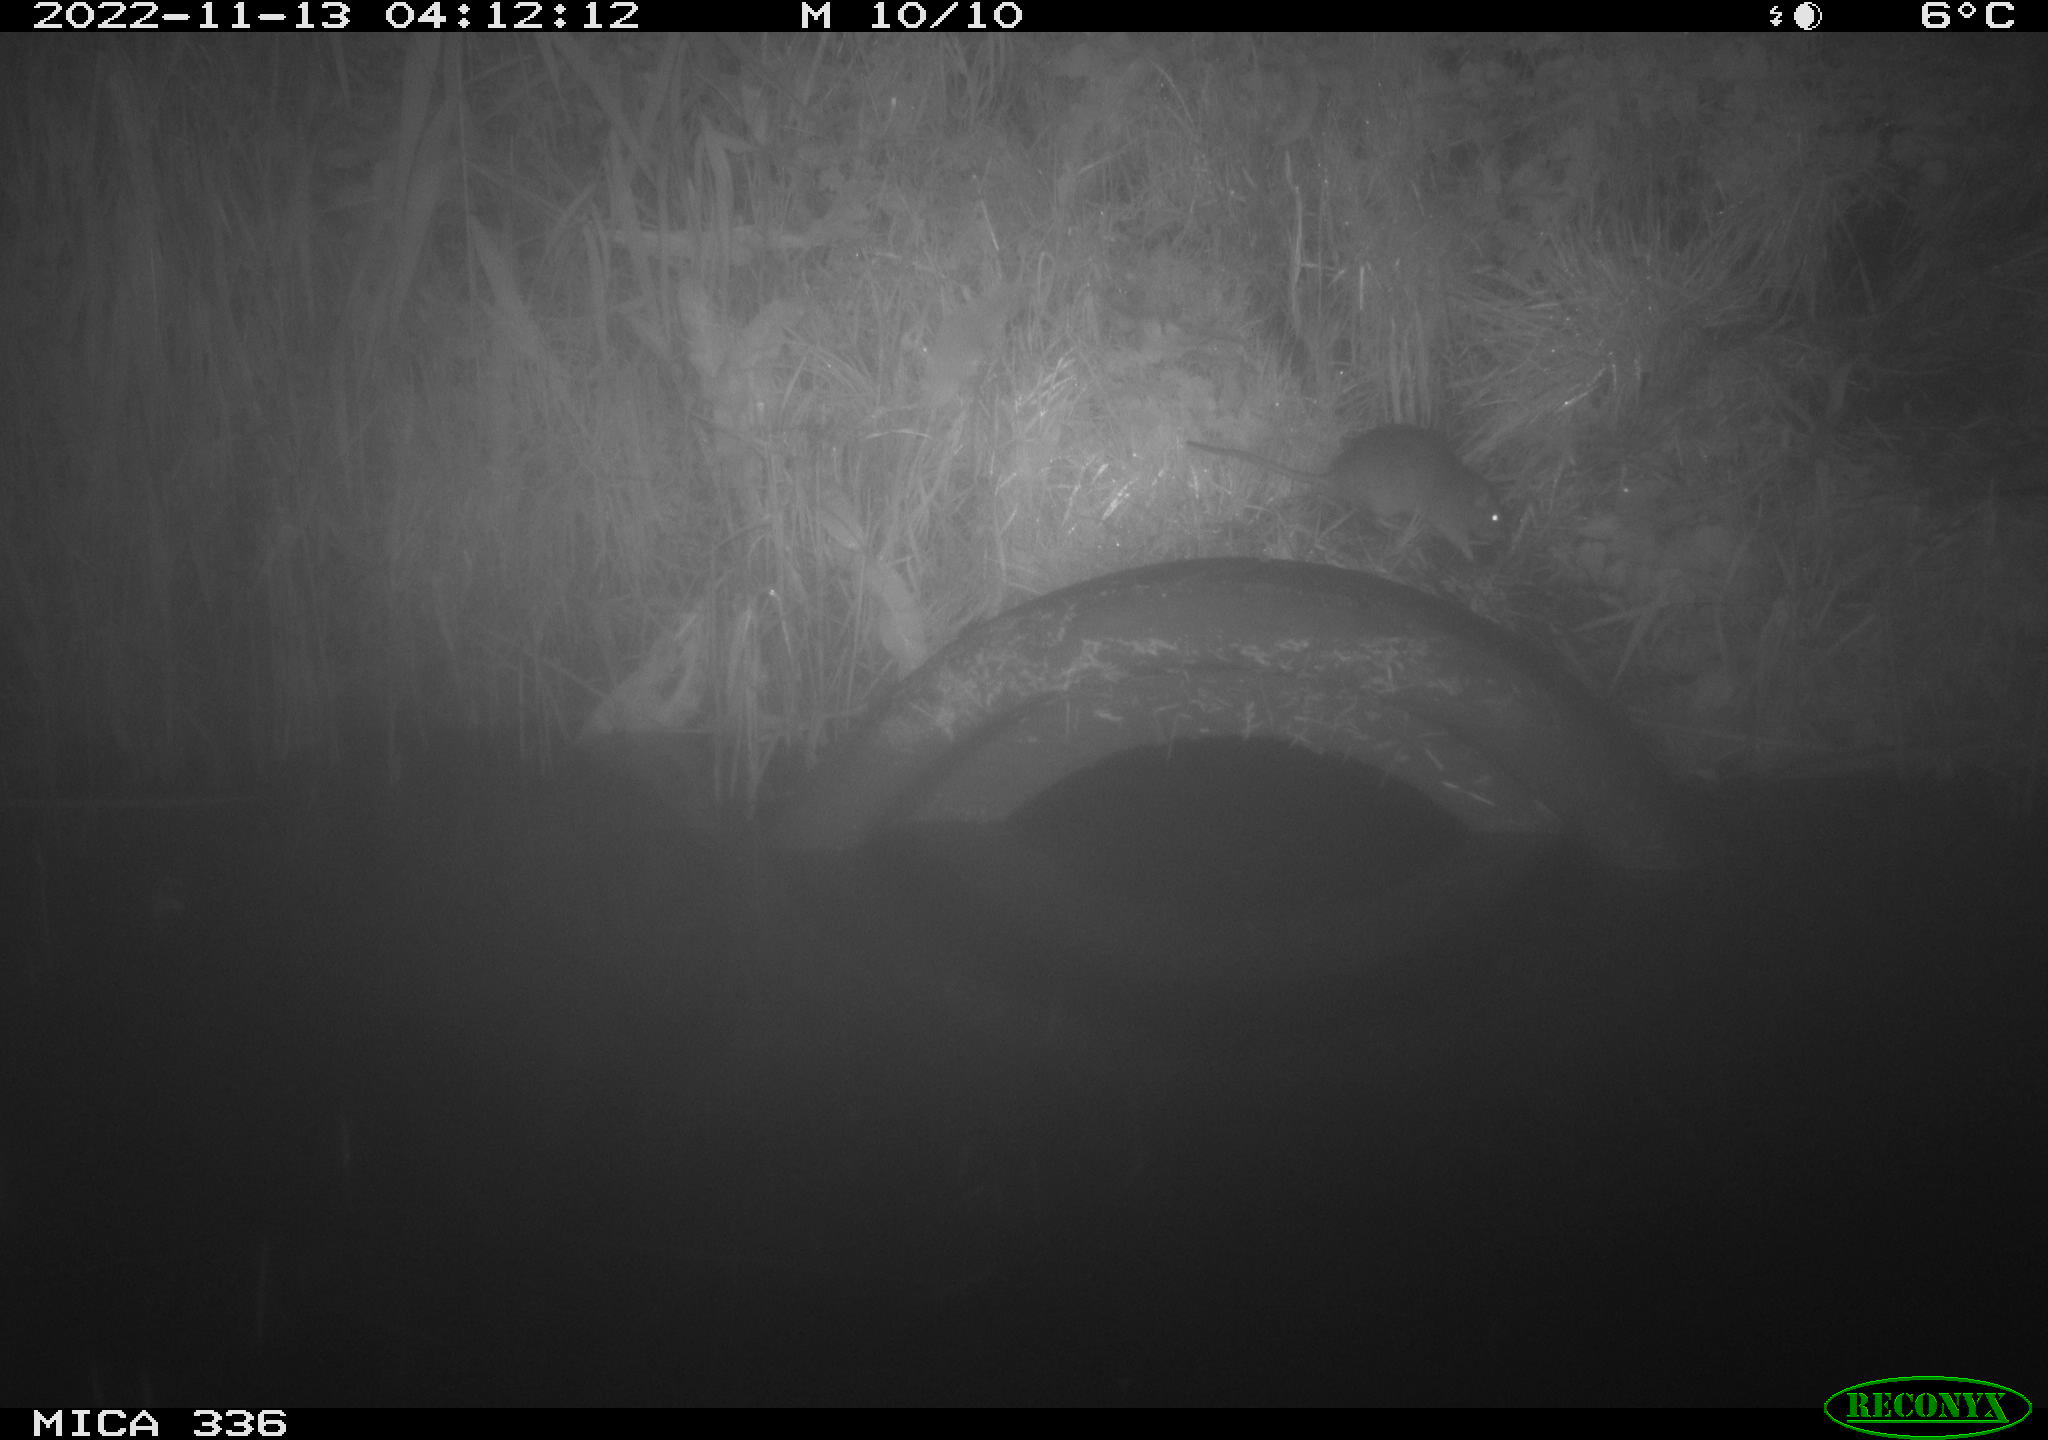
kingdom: Animalia
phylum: Chordata
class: Mammalia
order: Rodentia
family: Muridae
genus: Rattus
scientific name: Rattus norvegicus
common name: Brown rat
